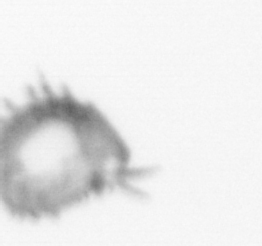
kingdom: Animalia
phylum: Annelida
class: Polychaeta
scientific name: Polychaeta
